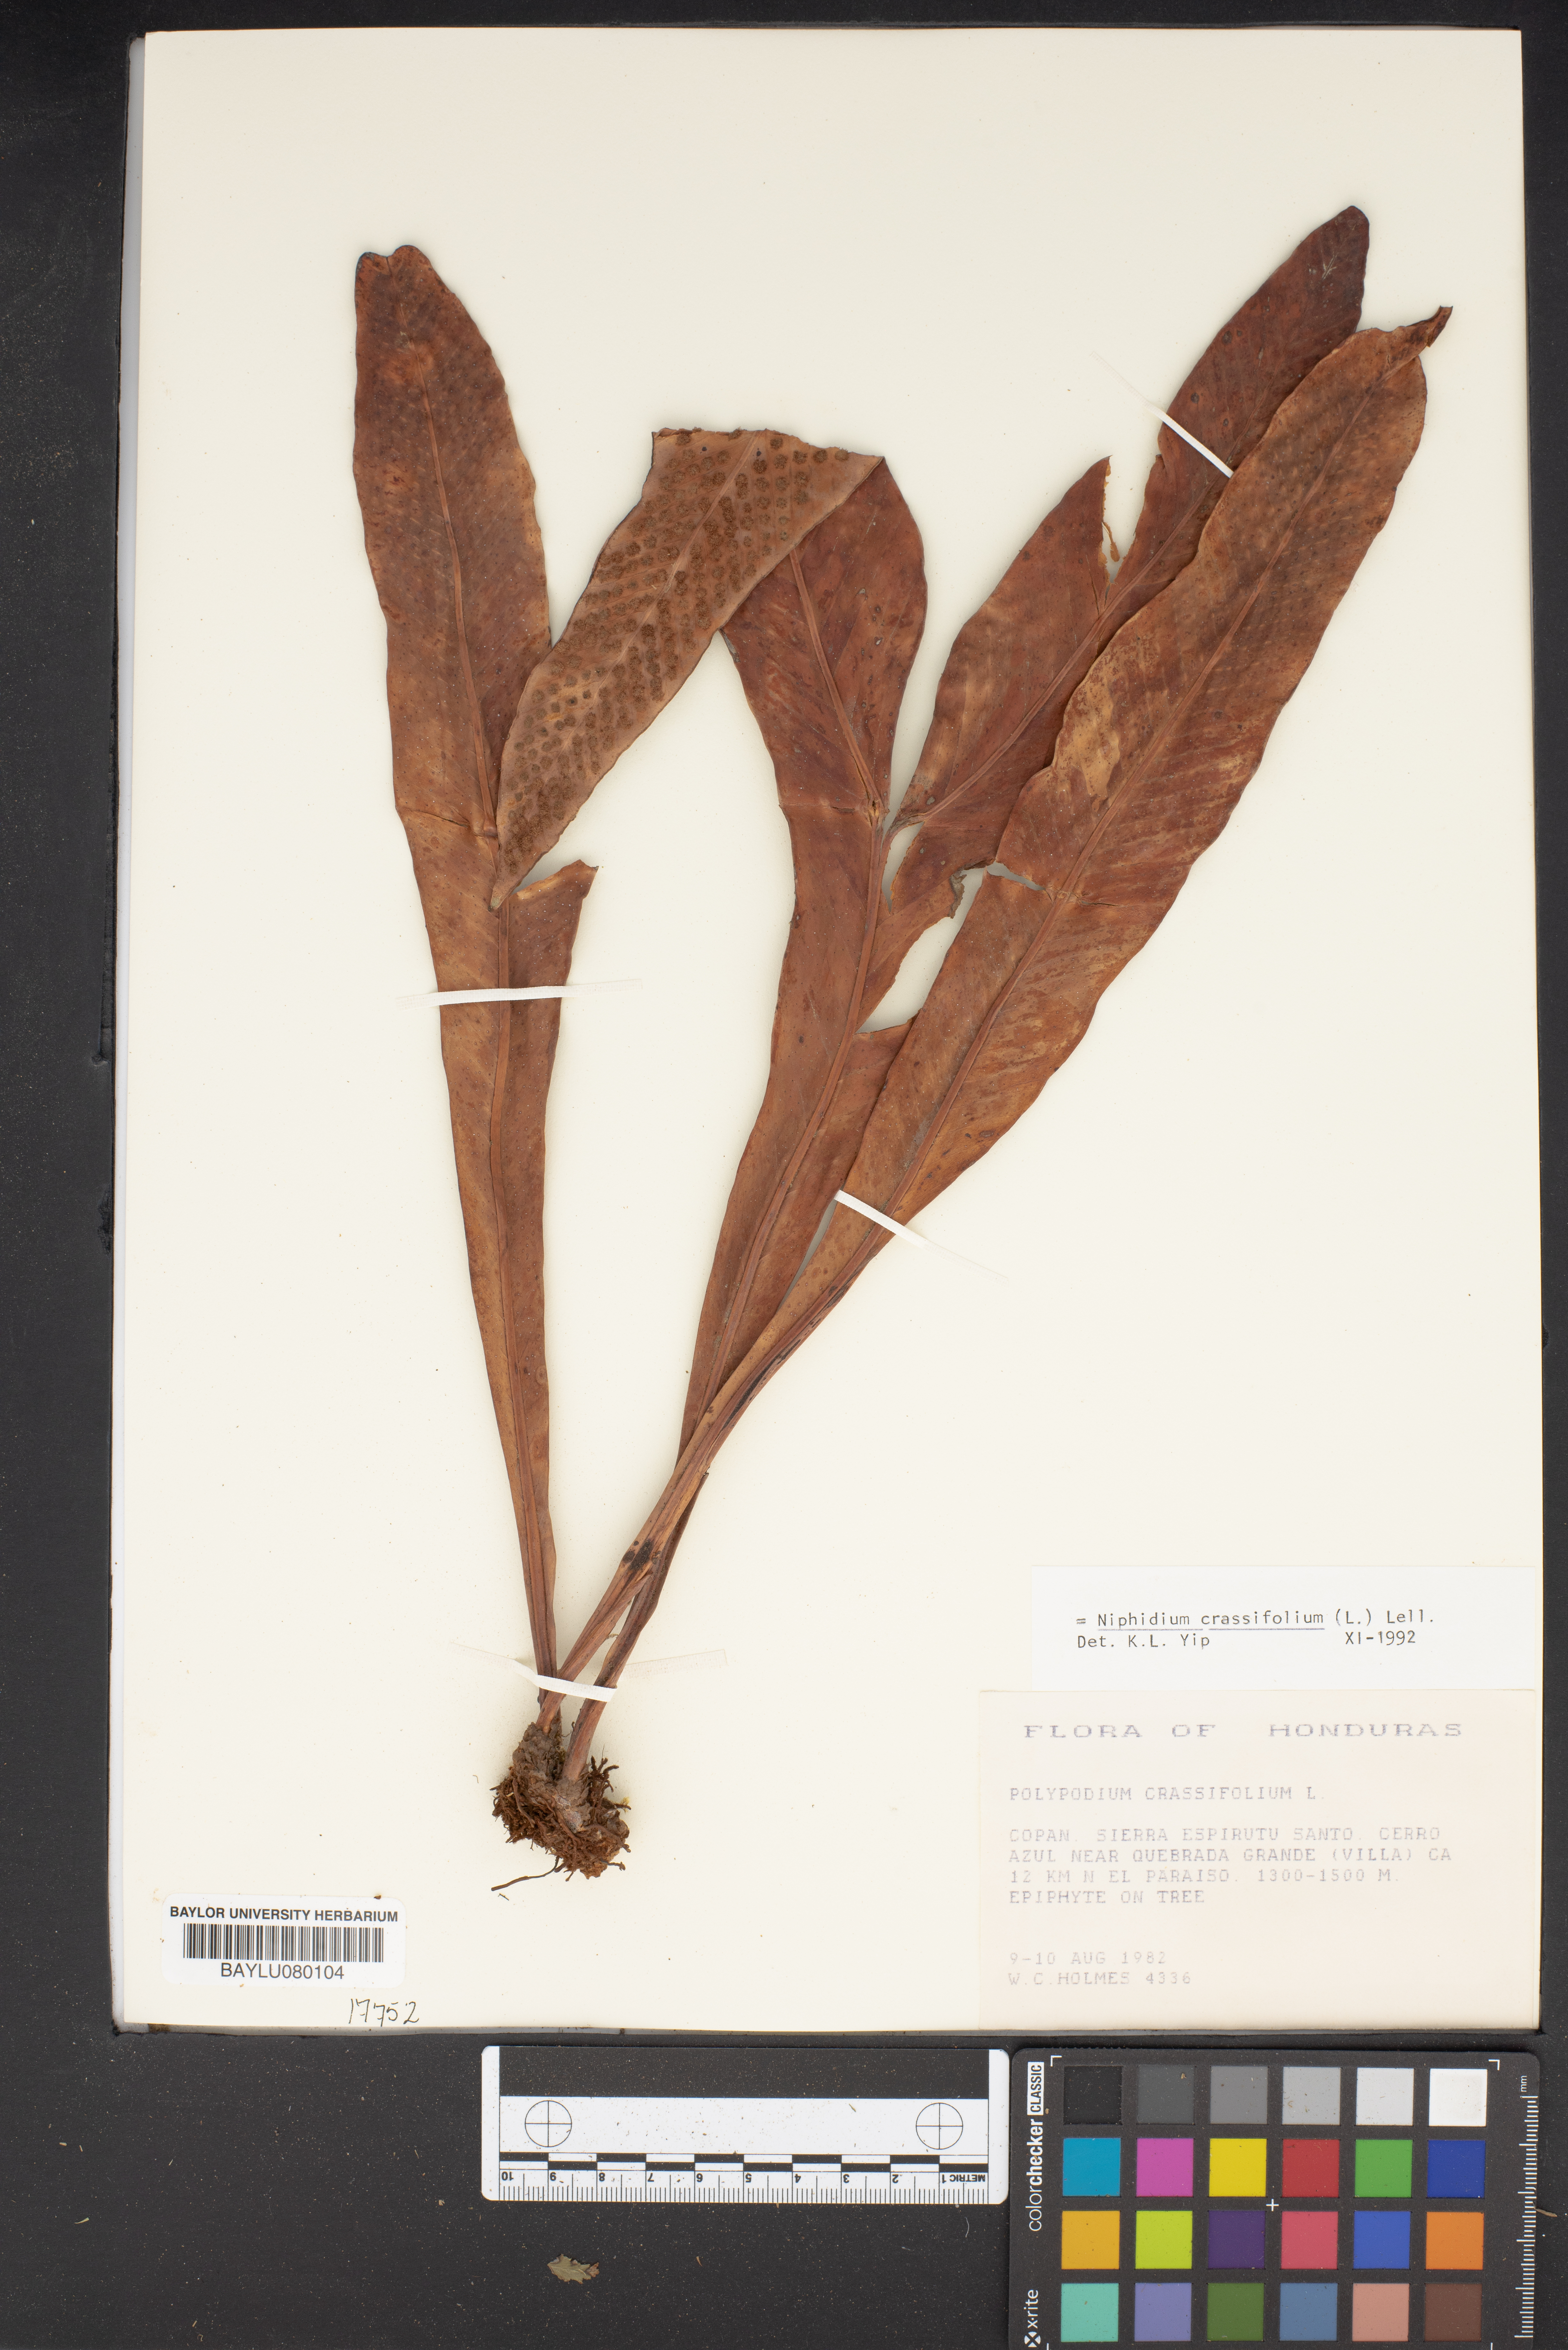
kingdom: Plantae
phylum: Tracheophyta
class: Polypodiopsida
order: Polypodiales
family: Polypodiaceae
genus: Niphidium
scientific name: Niphidium crassifolium
